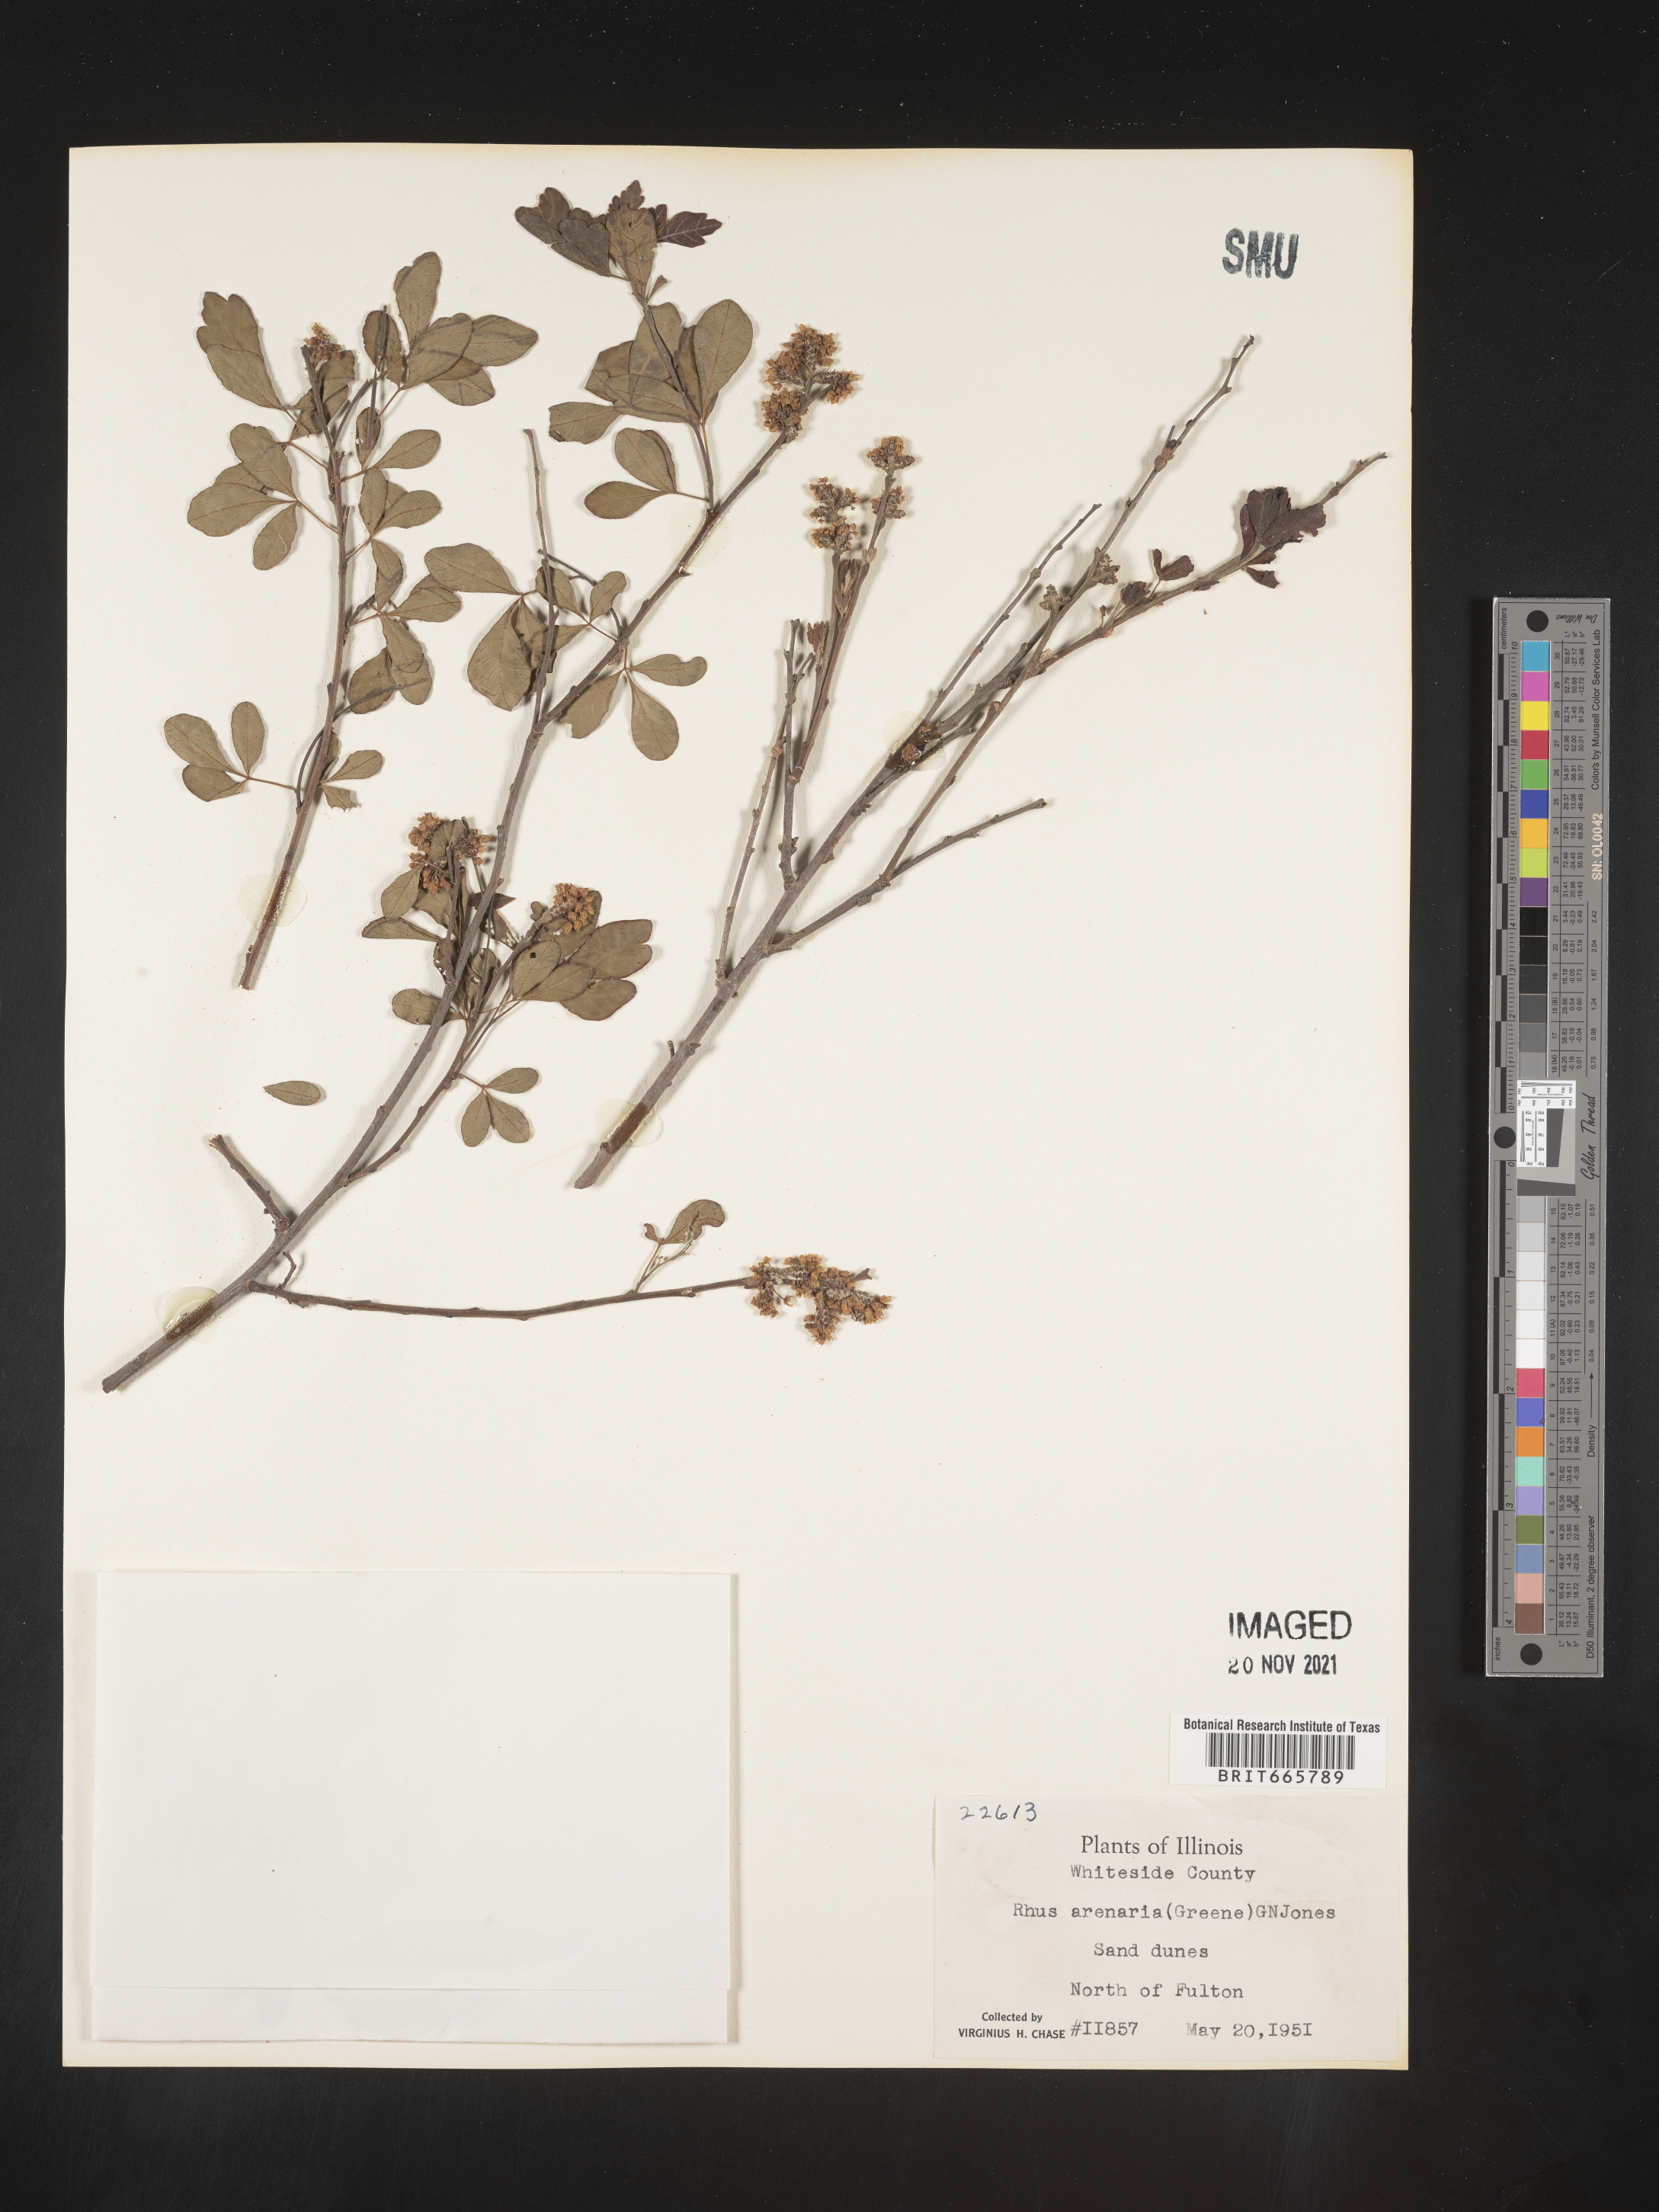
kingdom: Plantae
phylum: Tracheophyta
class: Magnoliopsida
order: Sapindales
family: Anacardiaceae
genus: Rhus
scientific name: Rhus aromatica
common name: Aromatic sumac
